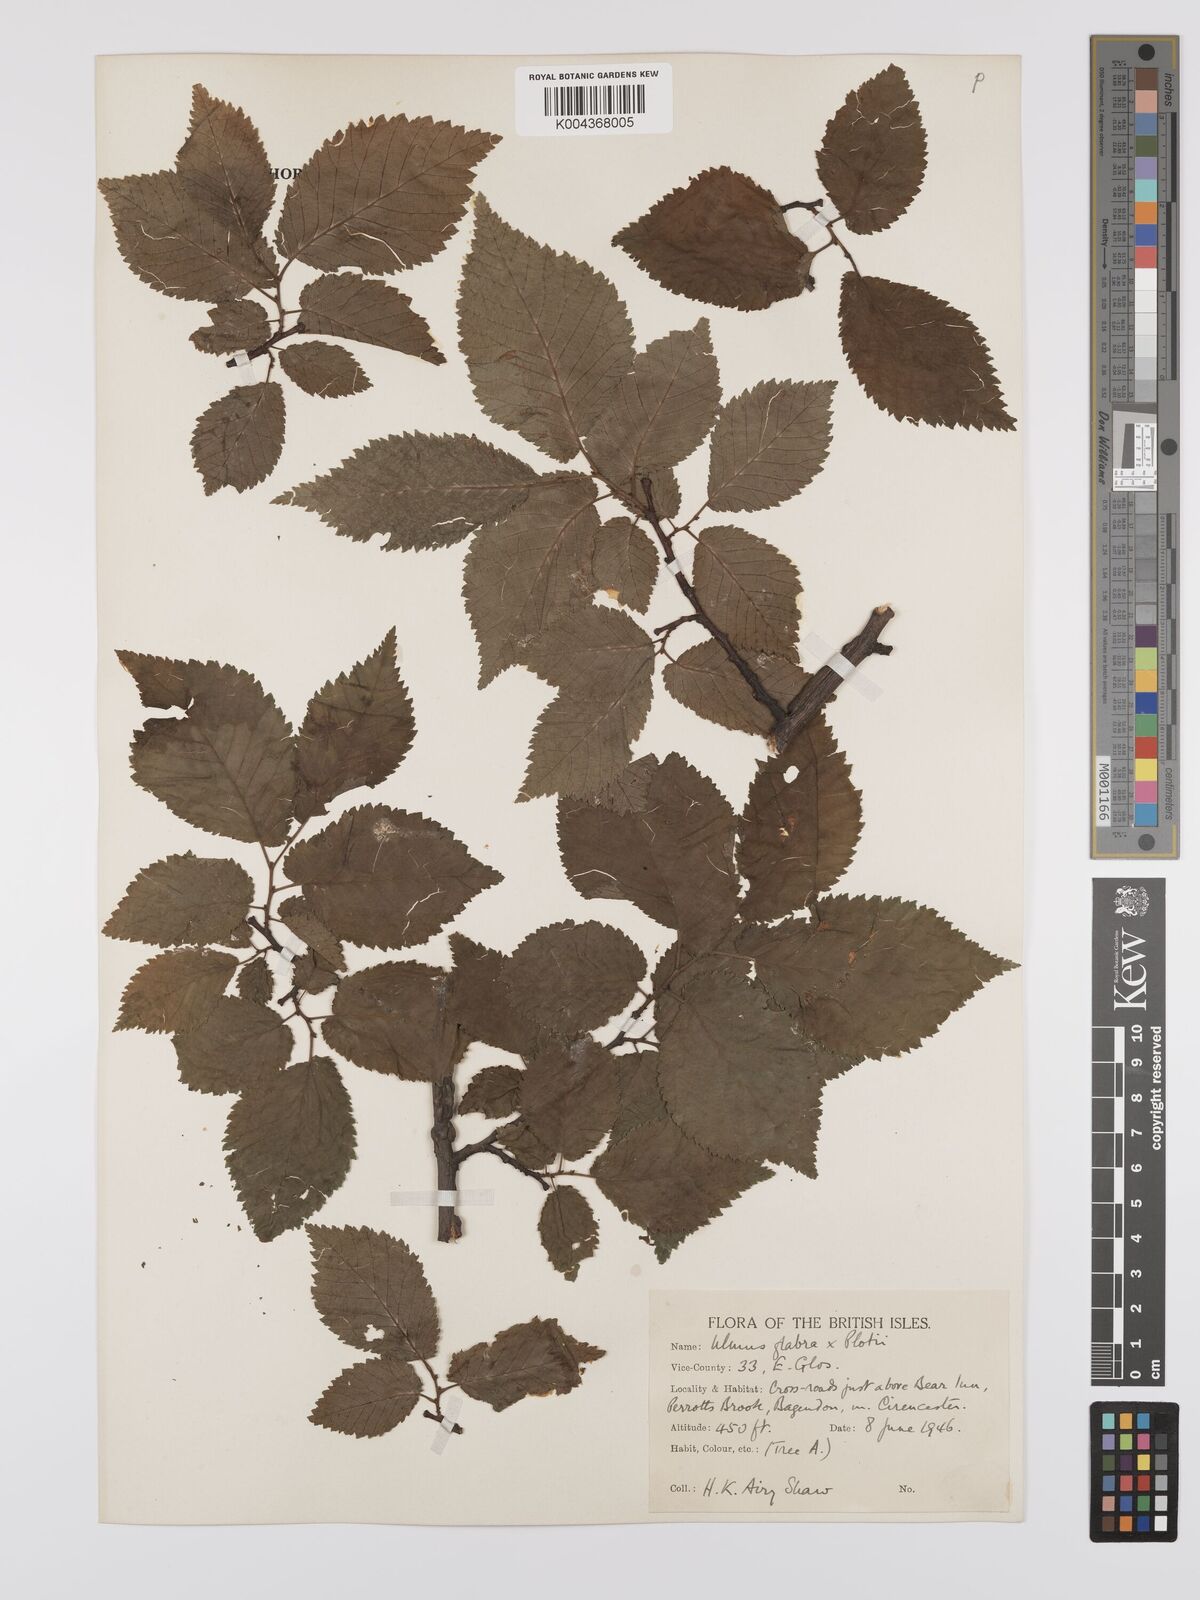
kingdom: Plantae
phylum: Tracheophyta
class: Magnoliopsida
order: Rosales
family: Ulmaceae
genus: Ulmus
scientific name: Ulmus
